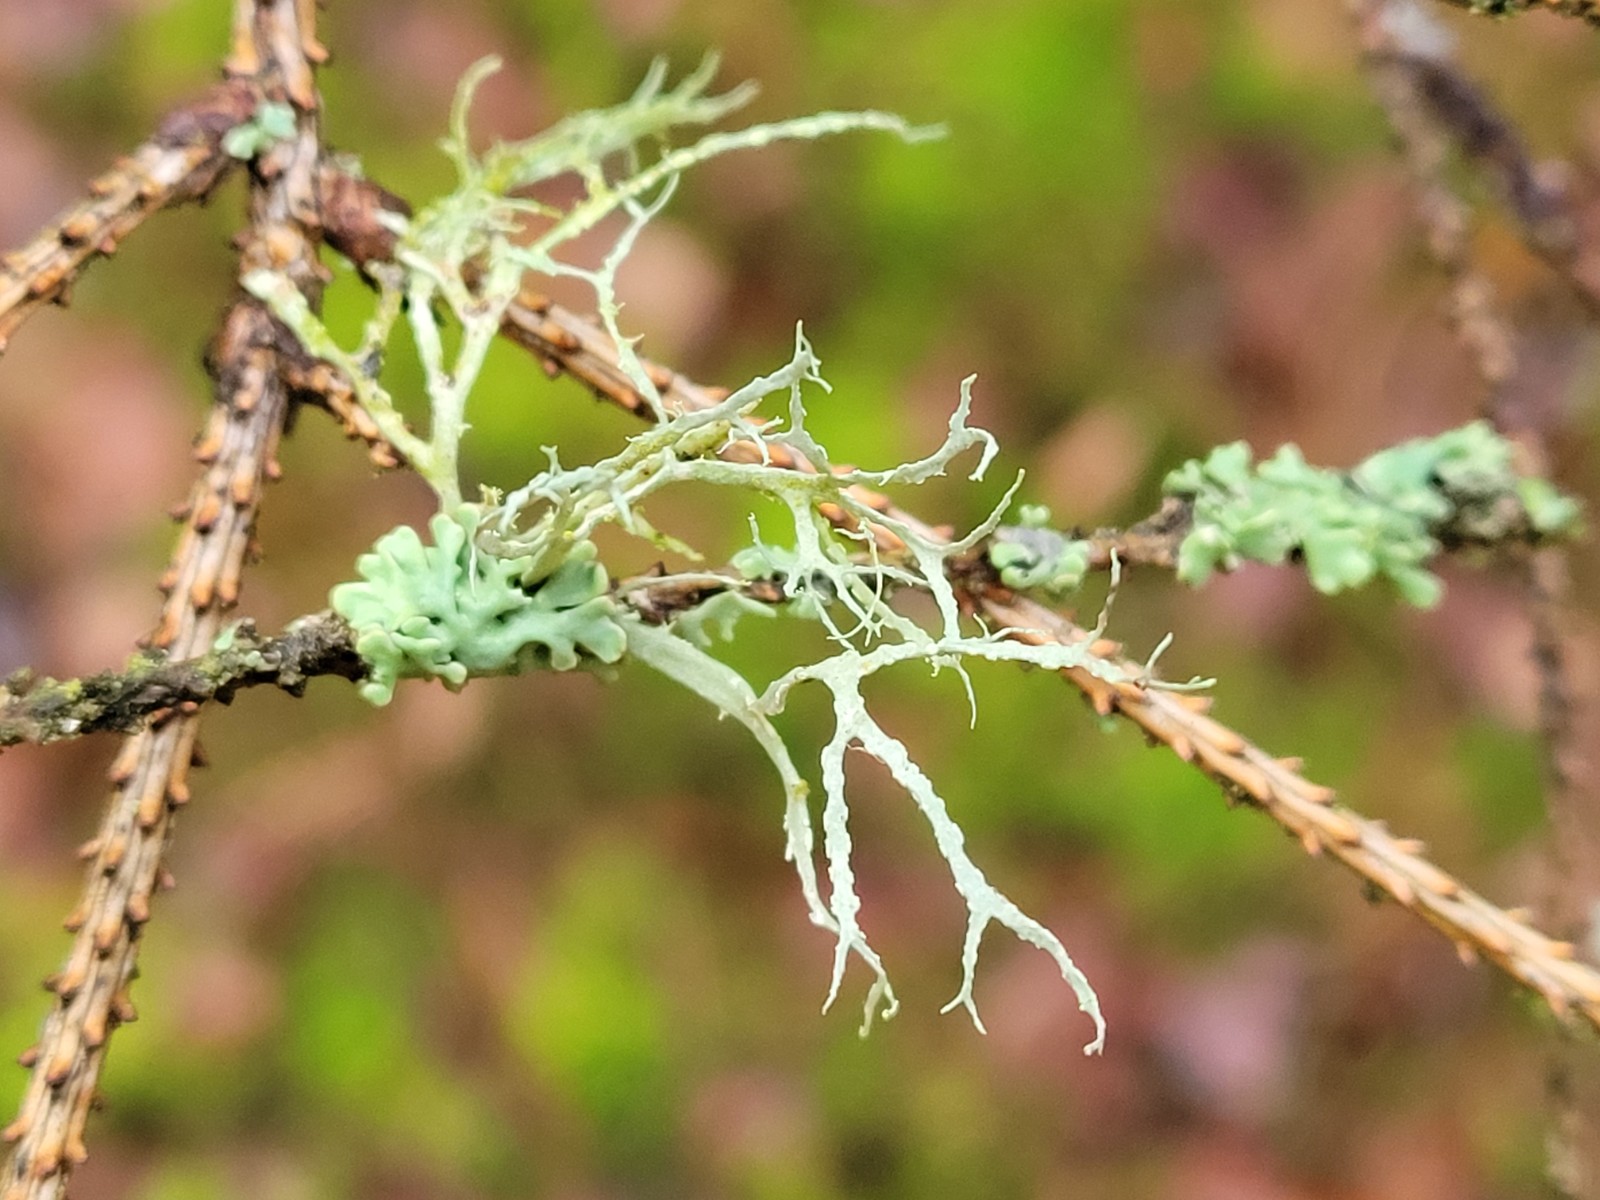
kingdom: Fungi
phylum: Ascomycota
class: Lecanoromycetes
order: Lecanorales
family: Ramalinaceae
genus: Ramalina
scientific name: Ramalina farinacea
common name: melet grenlav
